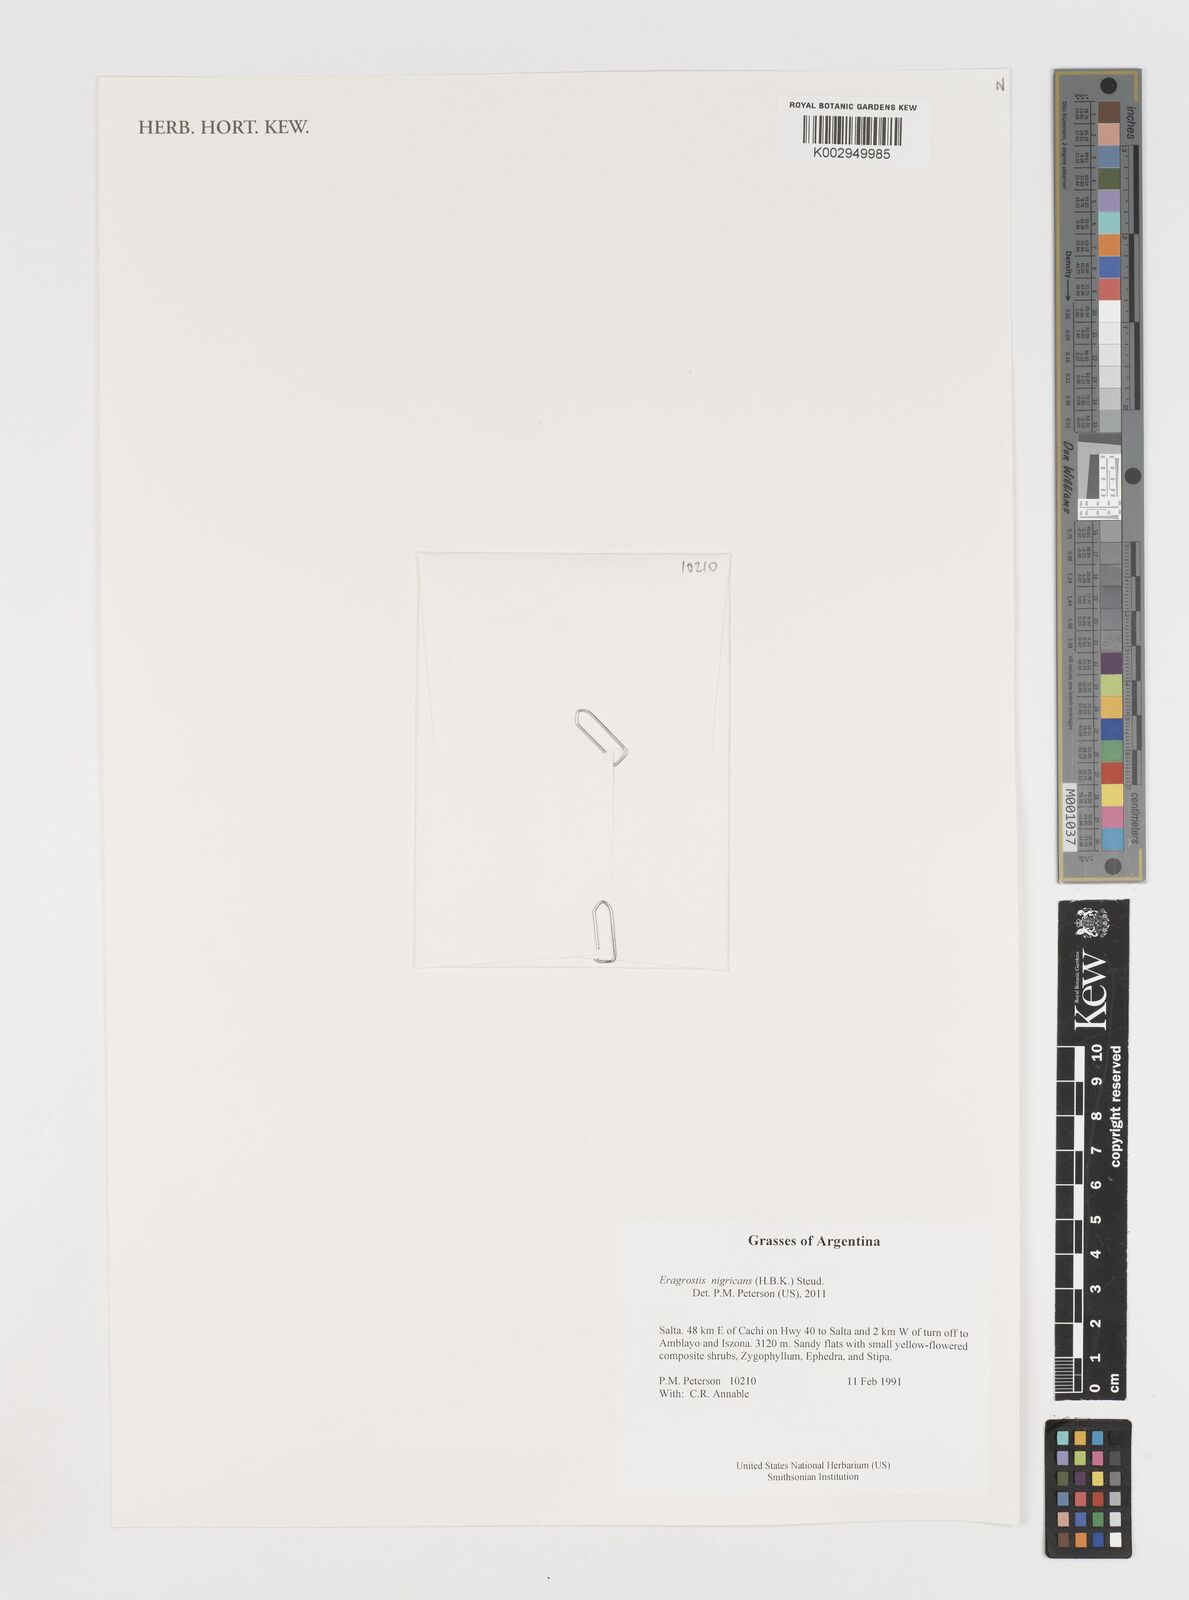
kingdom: Plantae
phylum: Tracheophyta
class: Liliopsida
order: Poales
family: Poaceae
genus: Eragrostis
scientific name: Eragrostis nigricans
